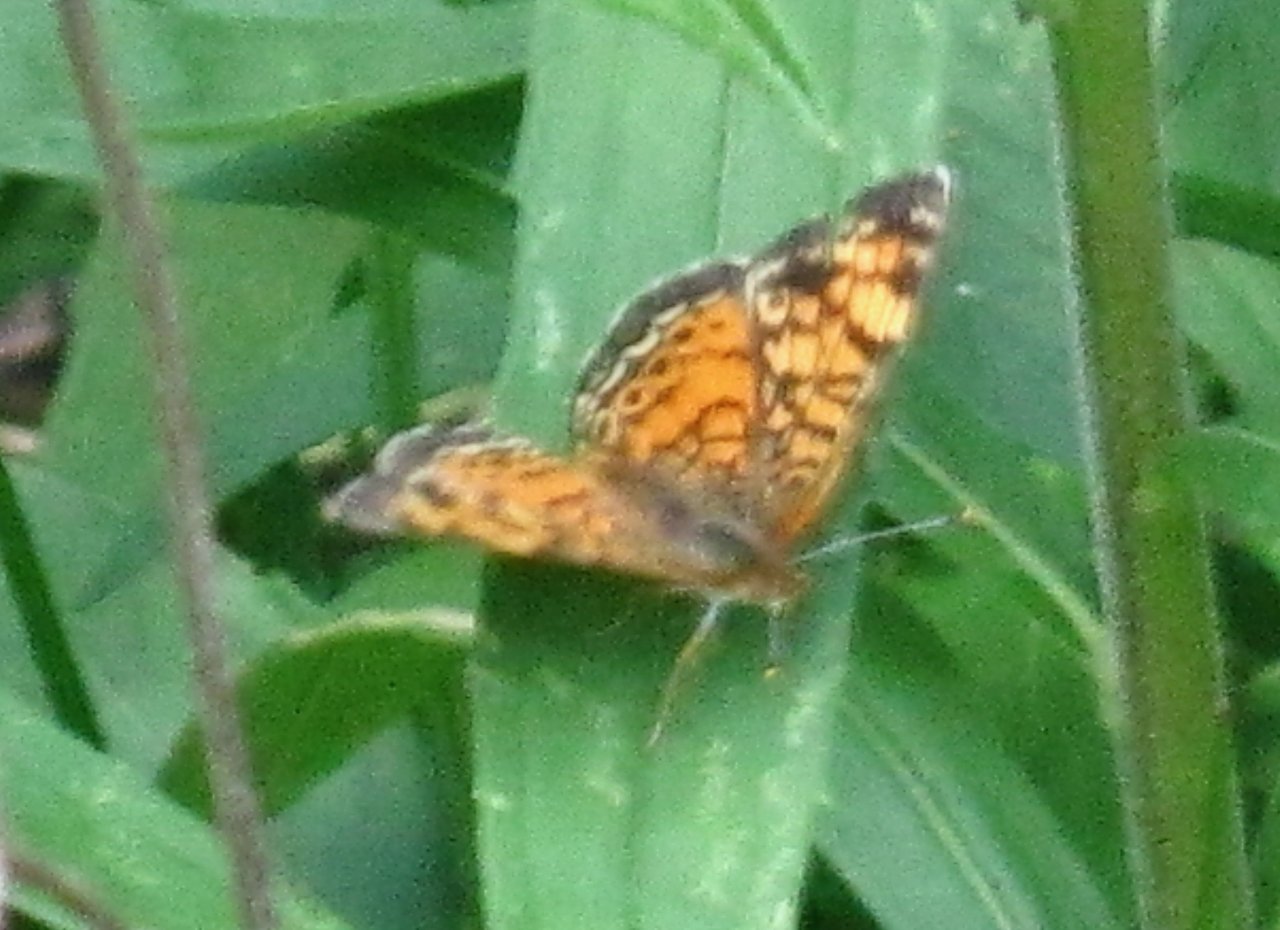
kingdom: Animalia
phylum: Arthropoda
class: Insecta
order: Lepidoptera
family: Nymphalidae
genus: Phyciodes
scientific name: Phyciodes tharos
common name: Pearl Crescent
